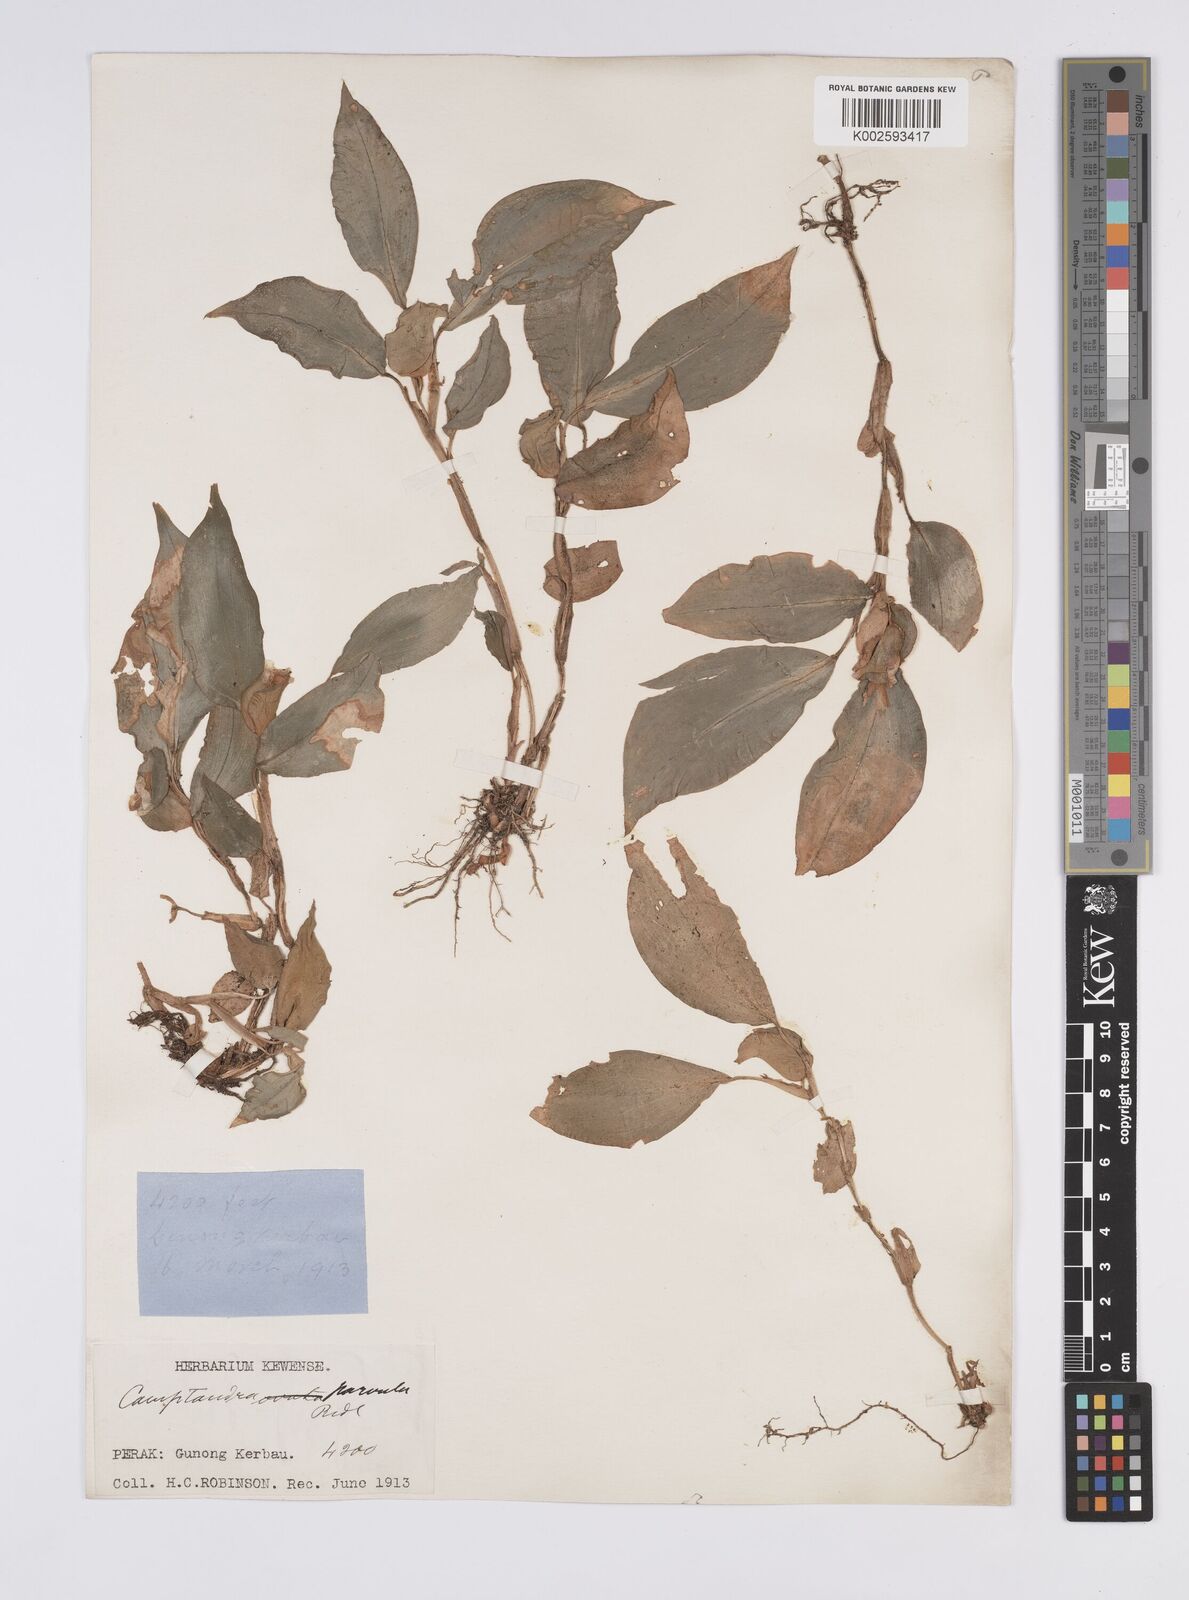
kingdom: Plantae
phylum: Tracheophyta
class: Liliopsida
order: Zingiberales
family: Zingiberaceae
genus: Camptandra
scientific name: Camptandra parvula
